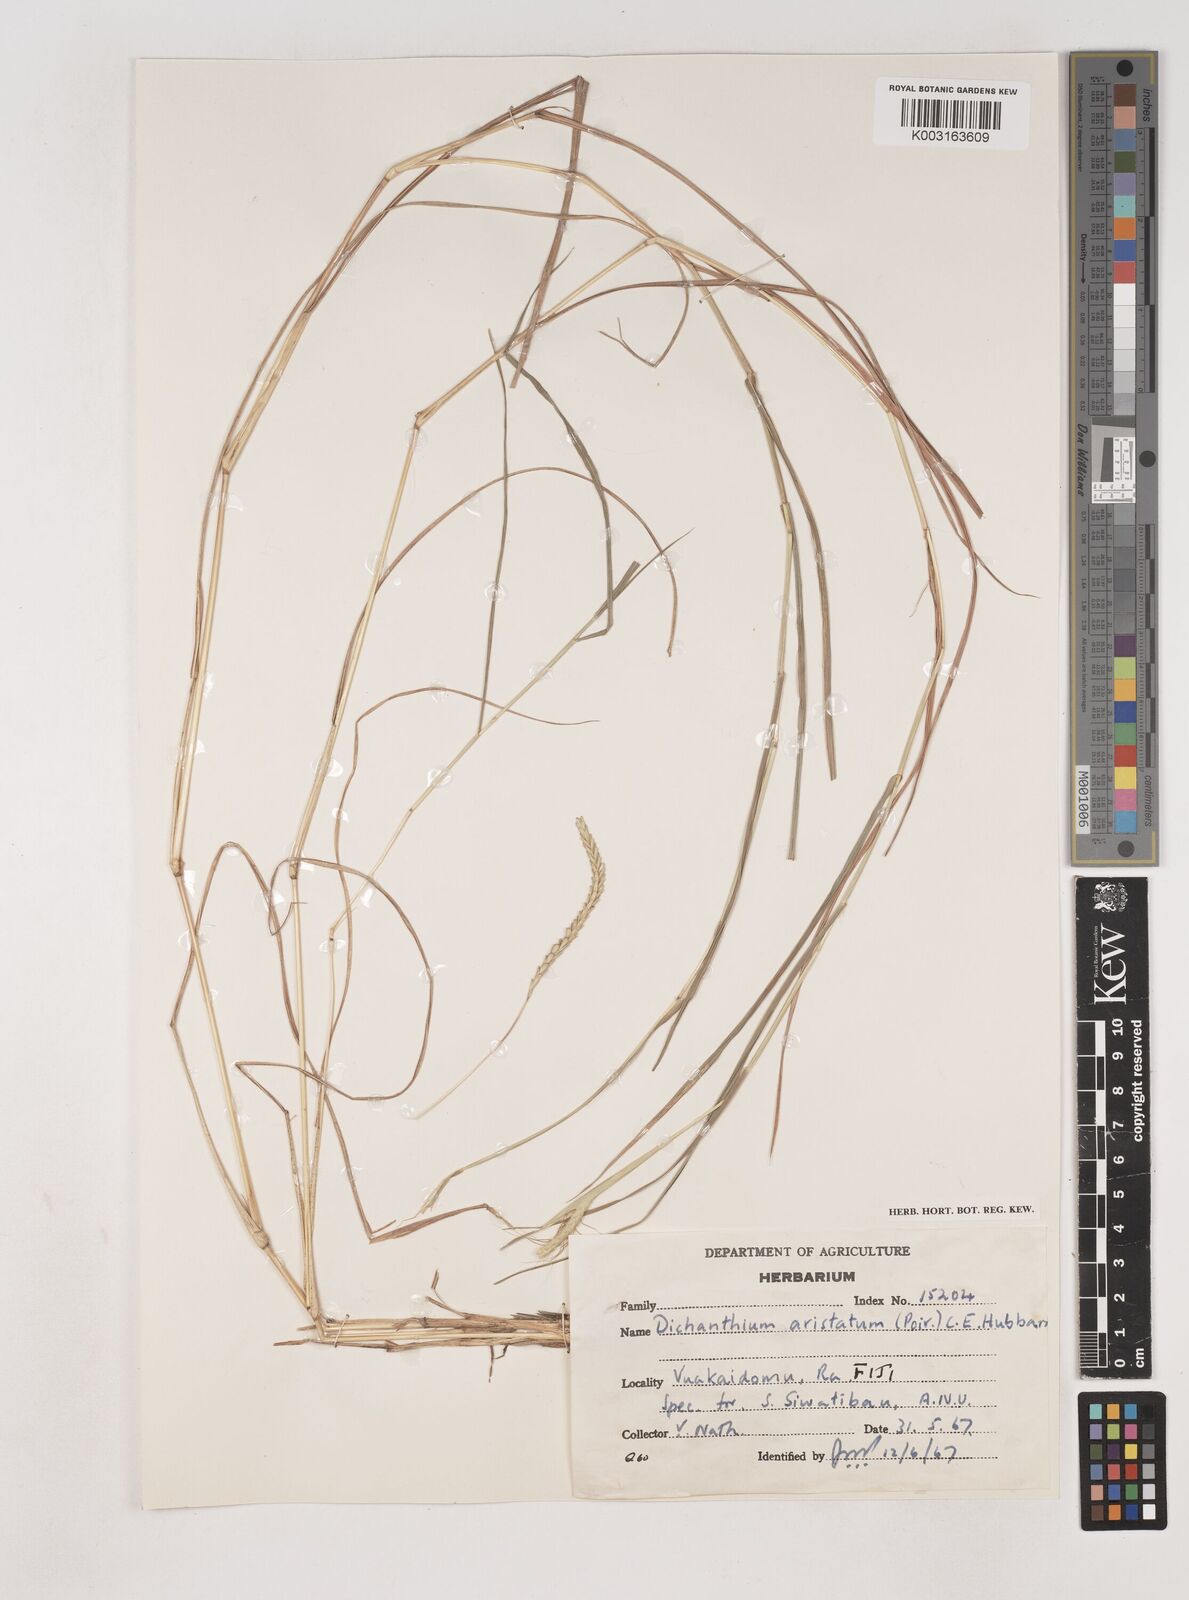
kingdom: Plantae
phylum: Tracheophyta
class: Liliopsida
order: Poales
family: Poaceae
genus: Dichanthium
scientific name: Dichanthium aristatum
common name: Angleton bluestem
